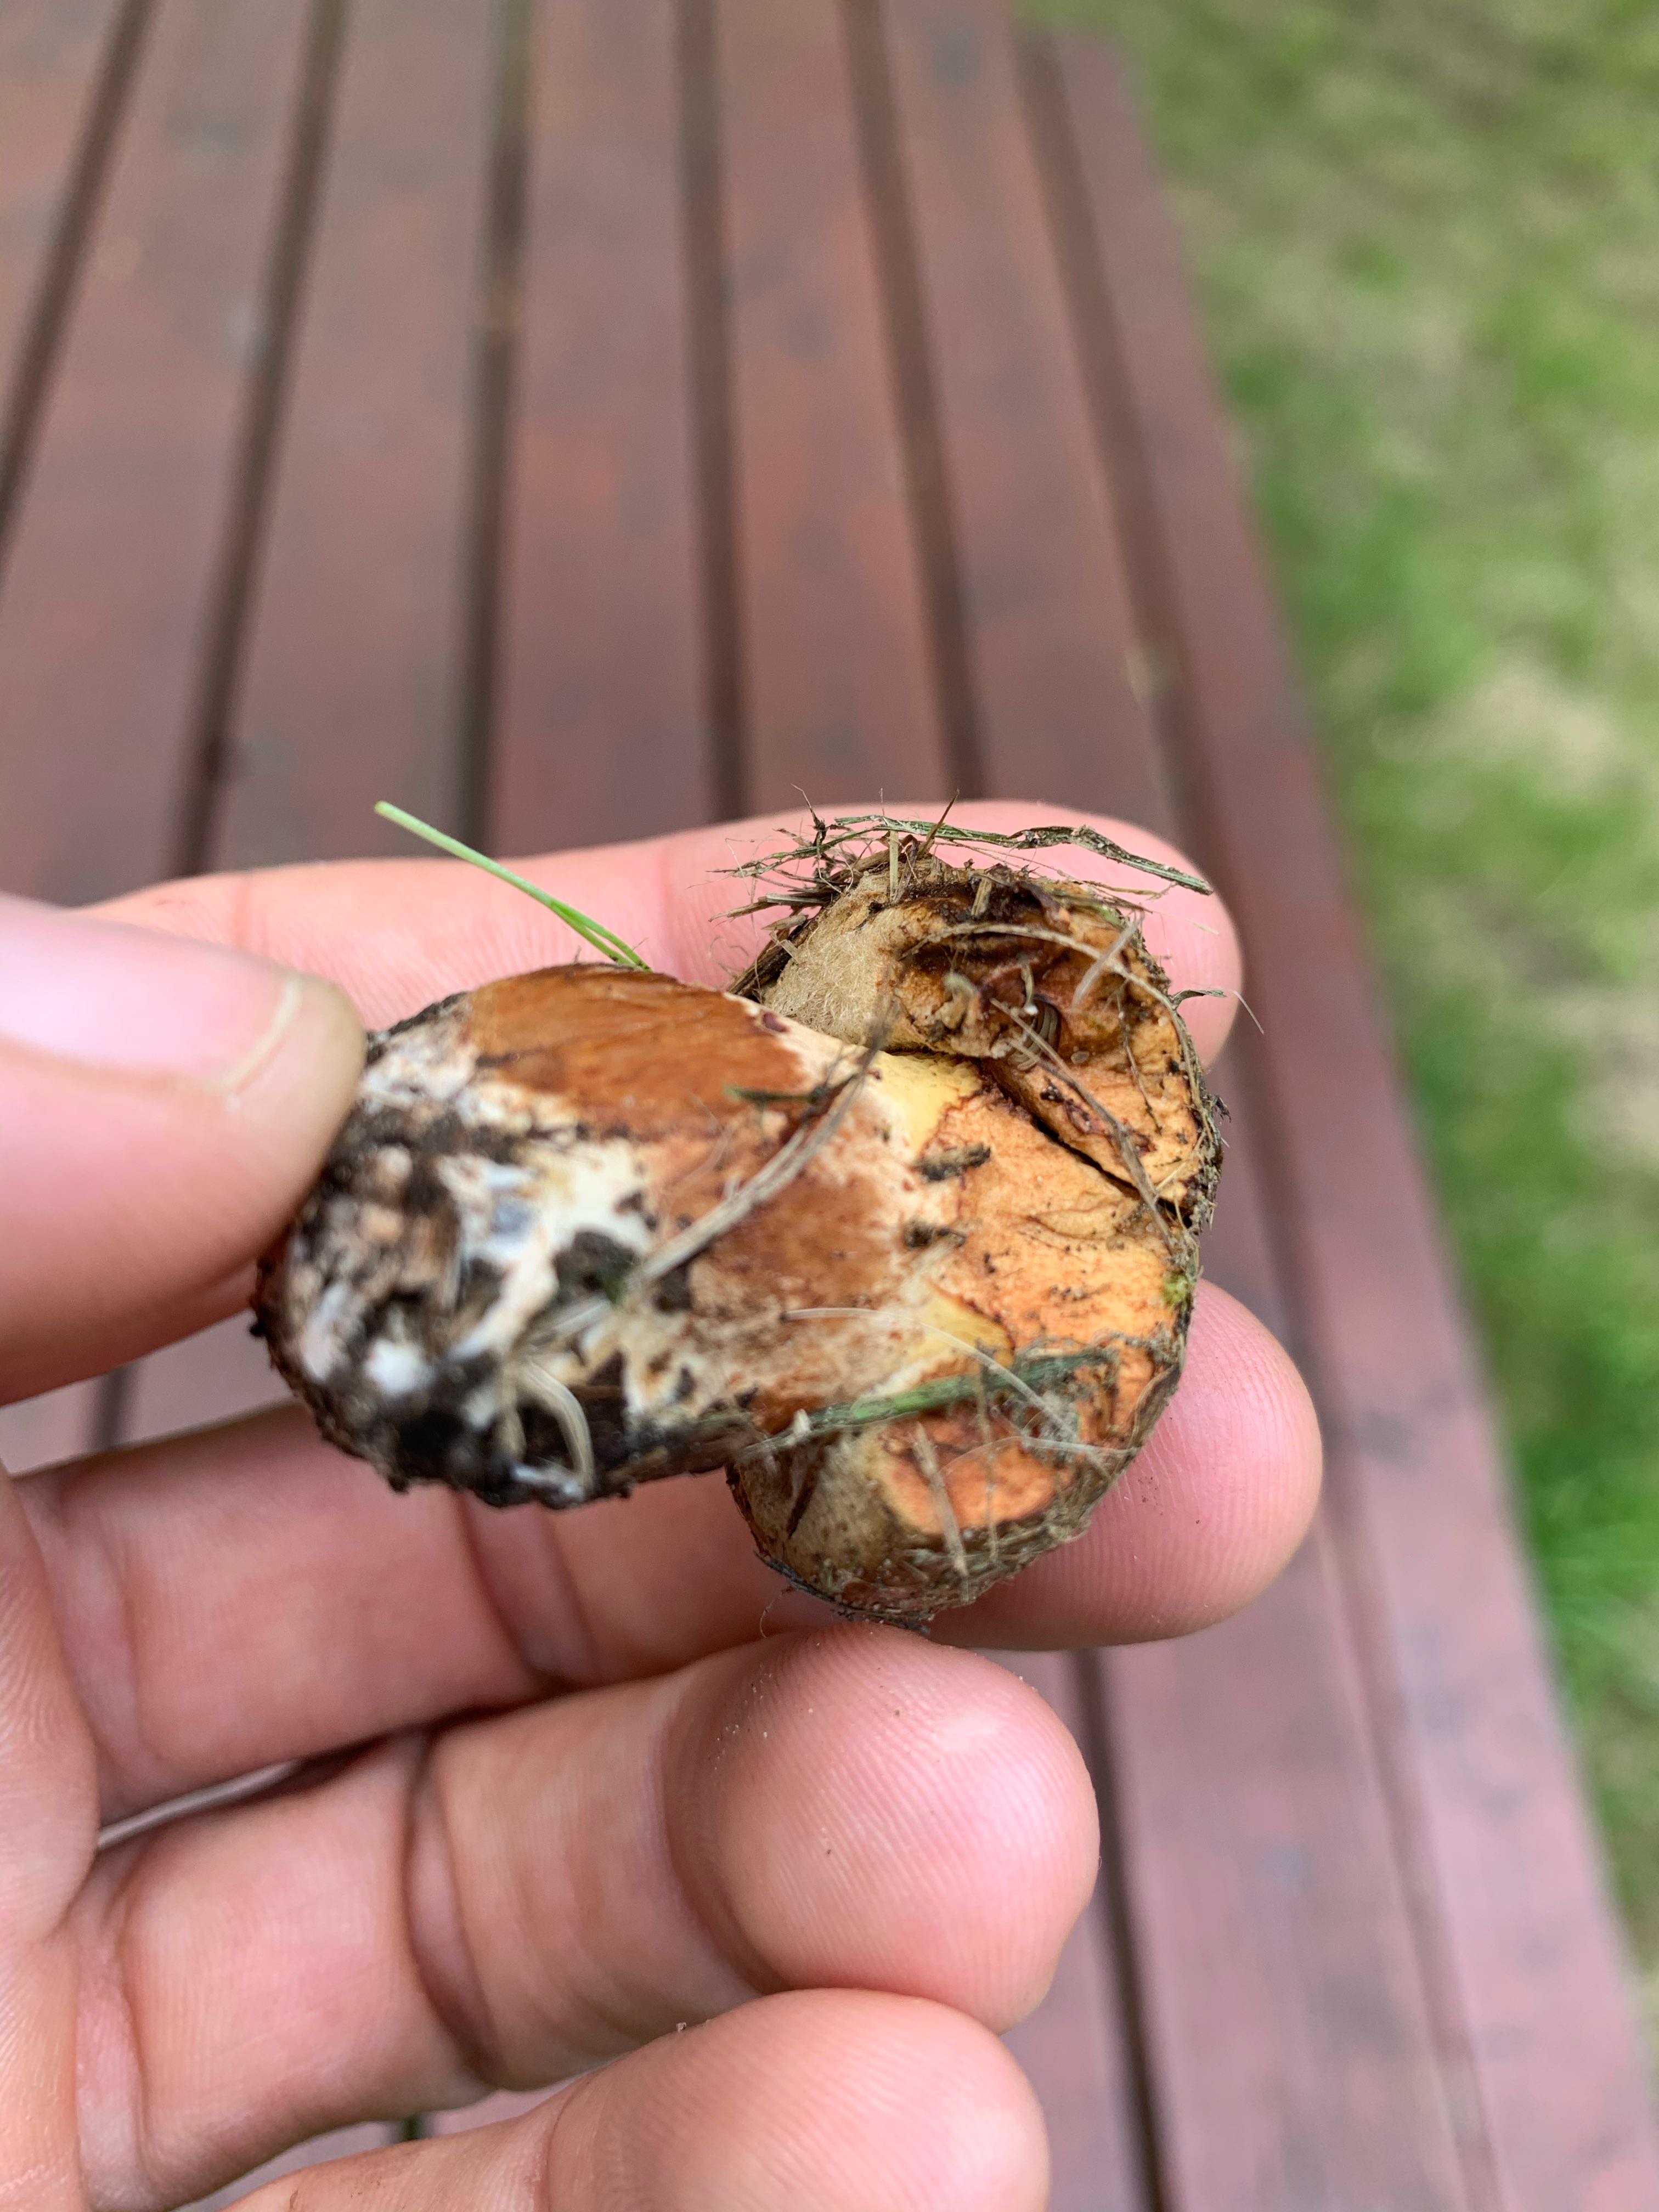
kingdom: Fungi
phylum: Basidiomycota
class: Agaricomycetes
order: Boletales
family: Paxillaceae
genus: Paxillus
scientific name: Paxillus
